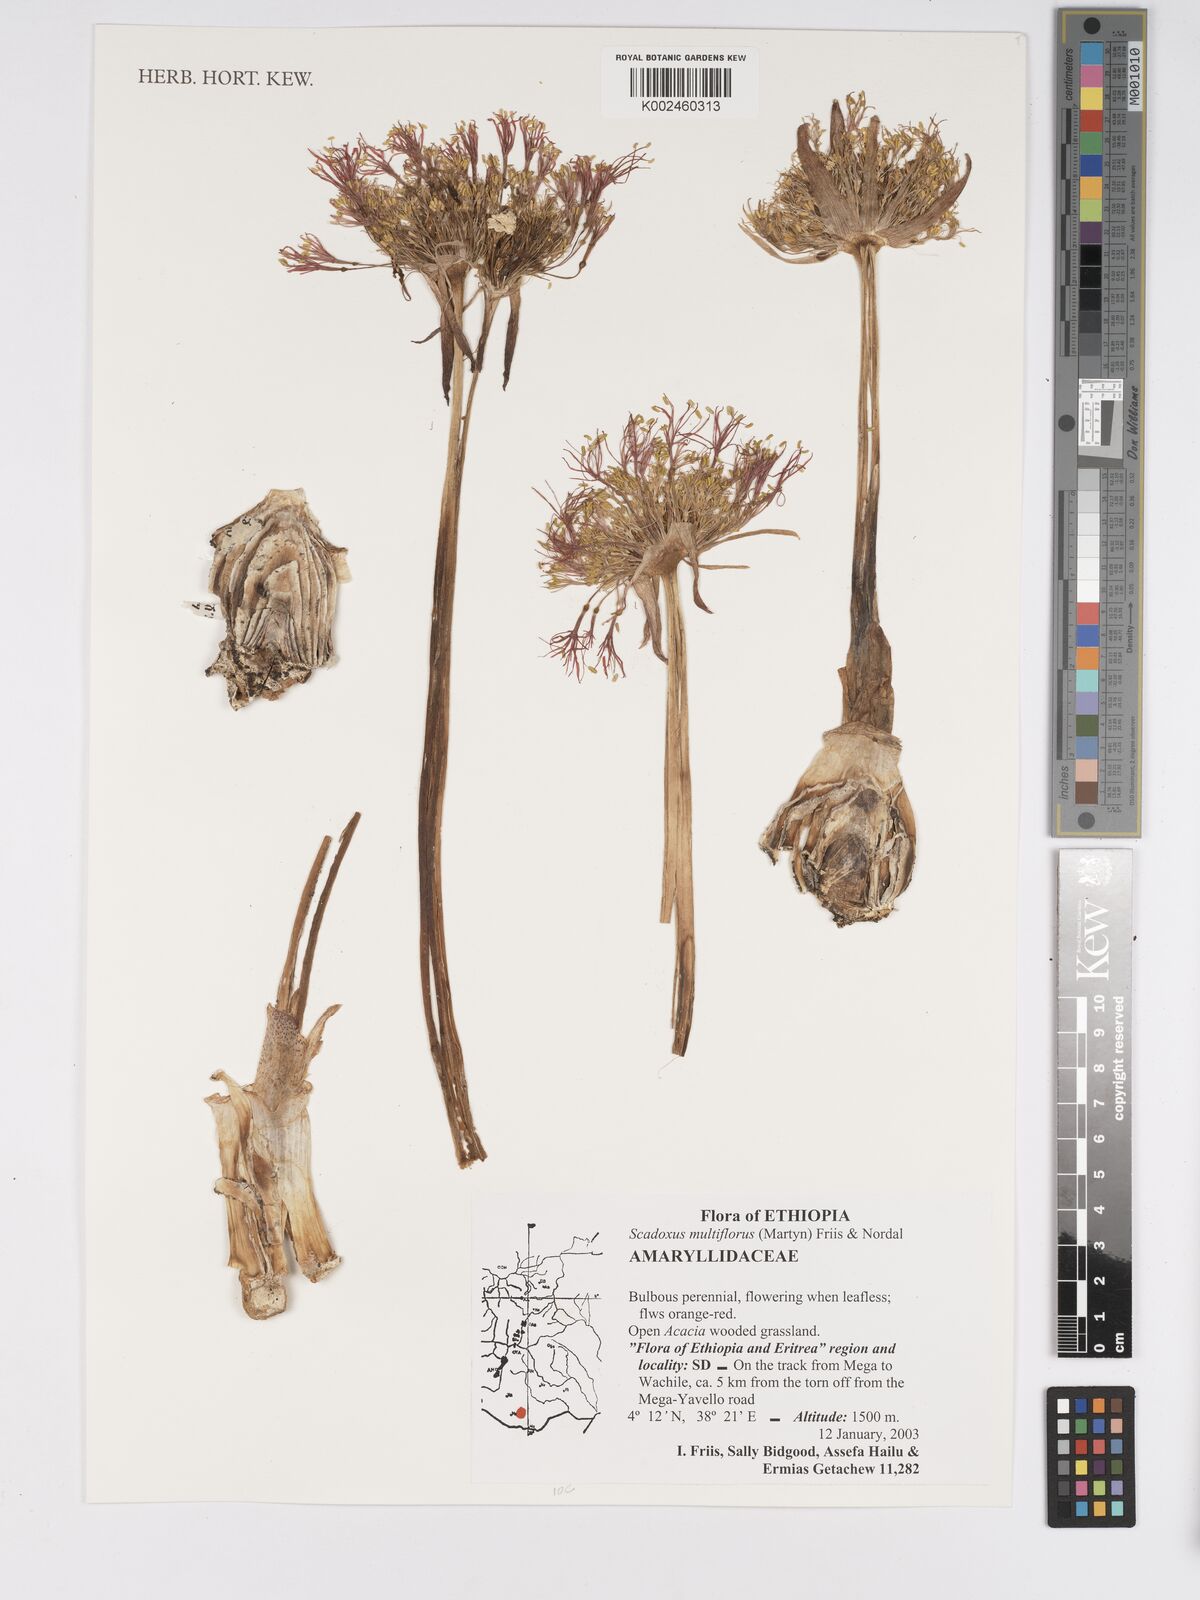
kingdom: Plantae
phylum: Tracheophyta
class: Liliopsida
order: Asparagales
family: Amaryllidaceae
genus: Scadoxus
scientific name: Scadoxus multiflorus
